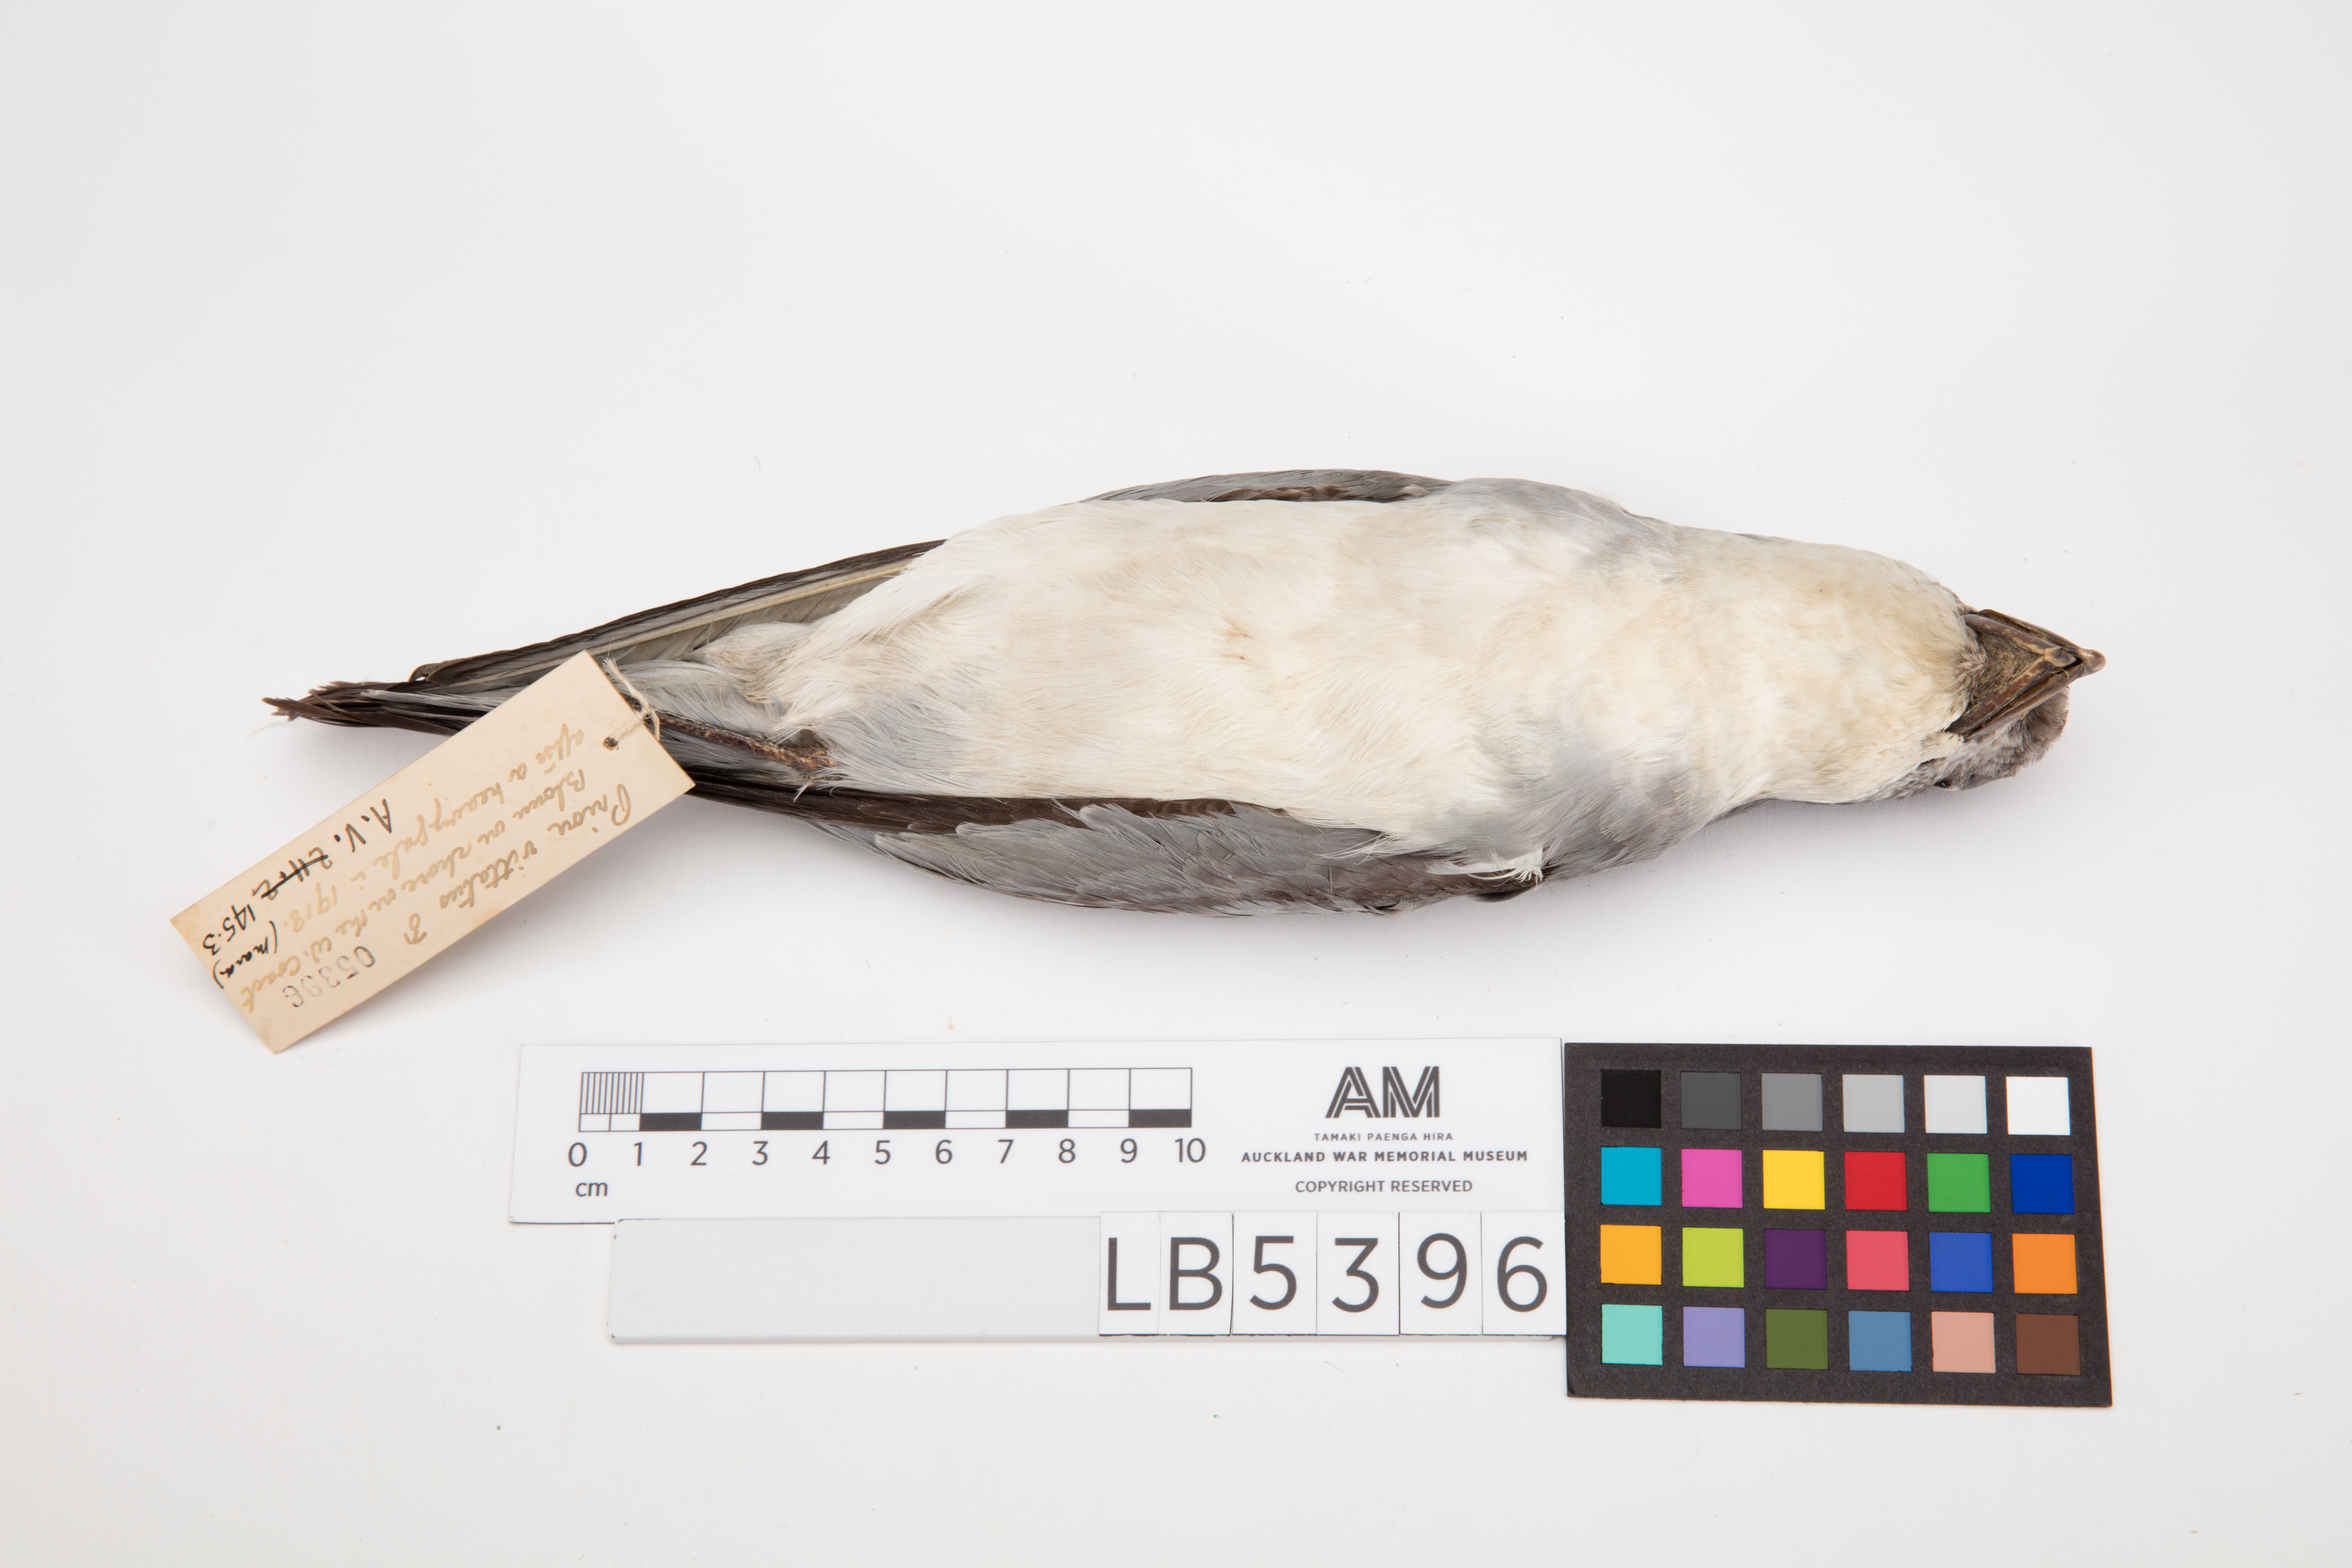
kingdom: Animalia
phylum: Chordata
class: Aves
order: Procellariiformes
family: Procellariidae
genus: Pachyptila
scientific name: Pachyptila vittata
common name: Broad-billed prion
